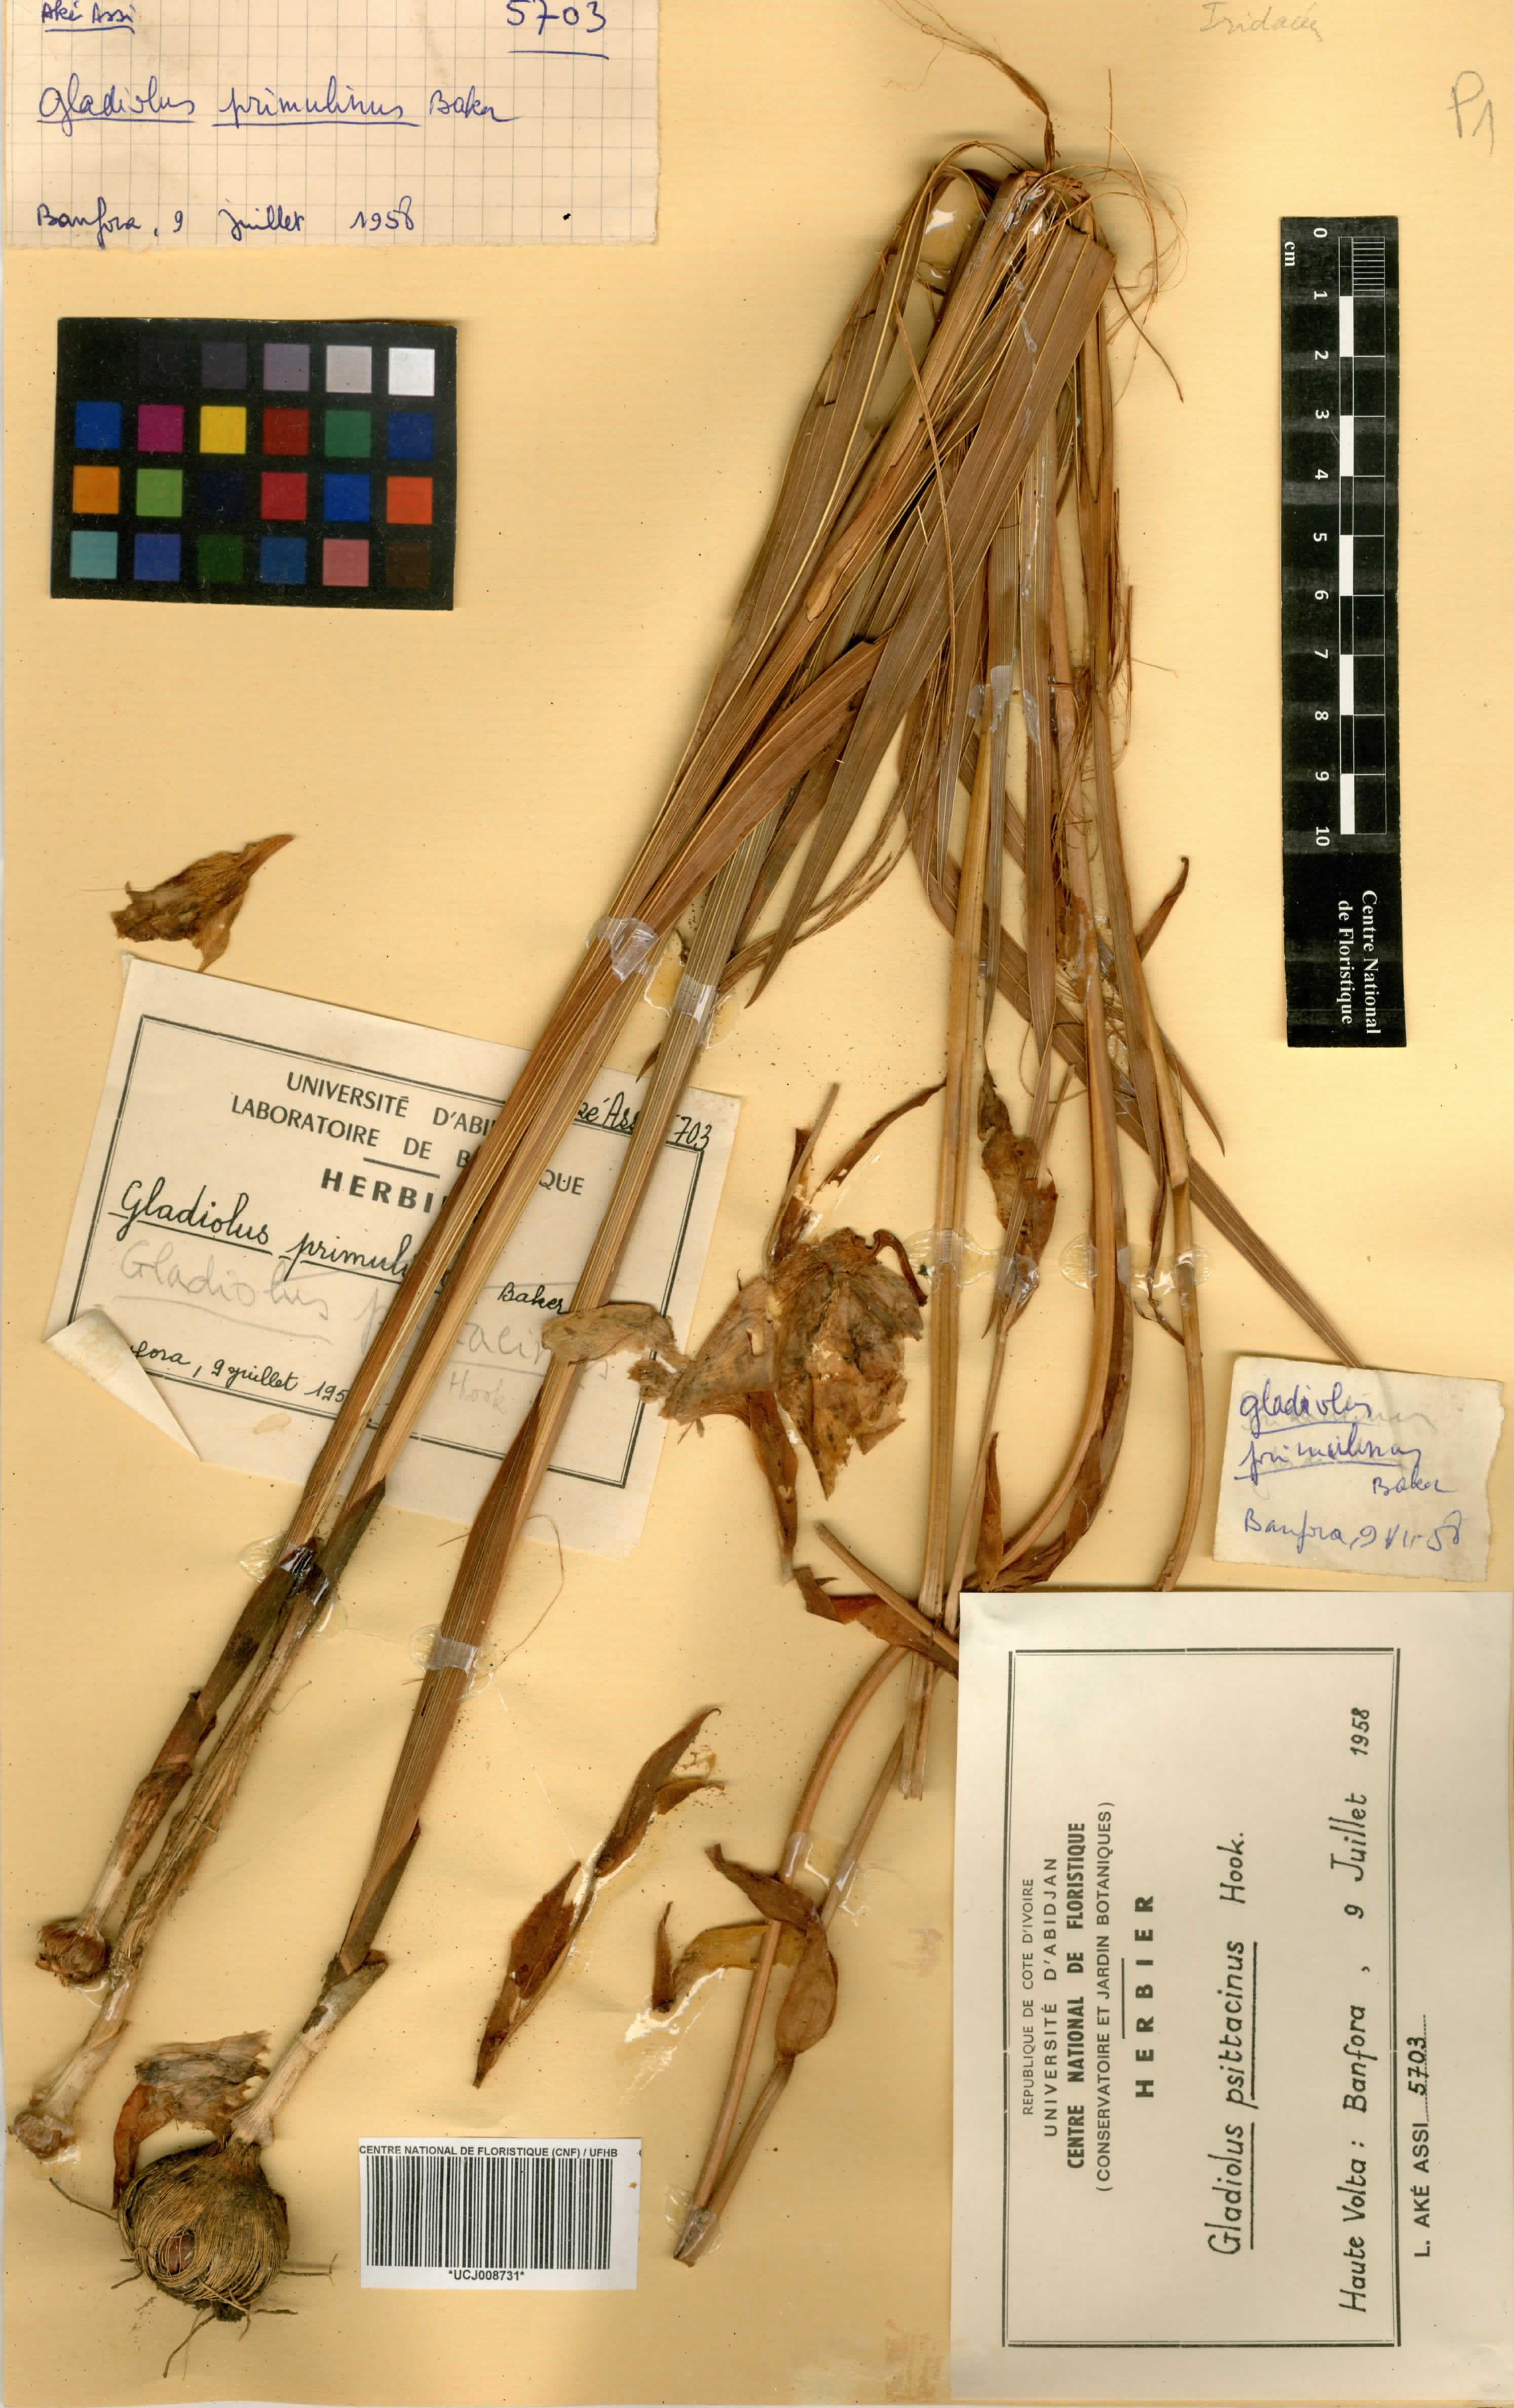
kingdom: Plantae
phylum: Tracheophyta
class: Liliopsida
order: Asparagales
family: Iridaceae
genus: Gladiolus
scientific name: Gladiolus dalenii
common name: Cornflag
